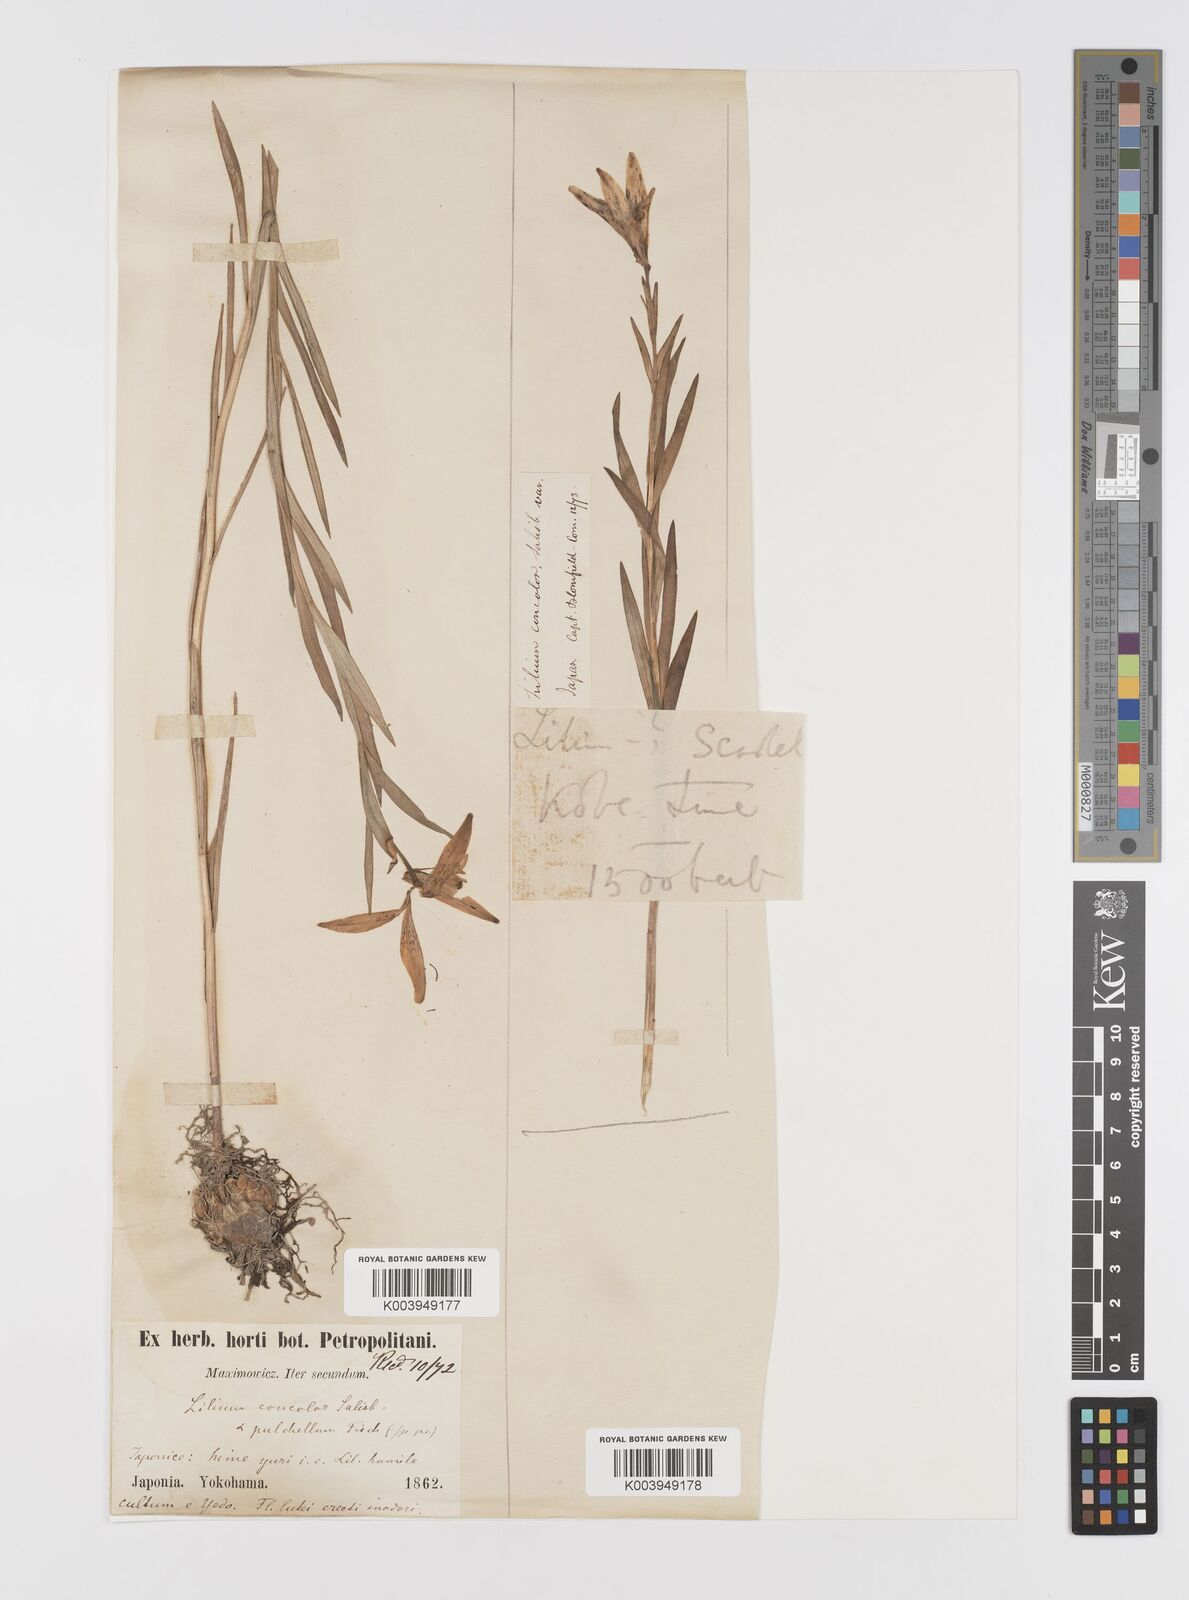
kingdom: Plantae
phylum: Tracheophyta
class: Liliopsida
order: Liliales
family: Liliaceae
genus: Lilium
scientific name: Lilium concolor
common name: Morning-star lily
